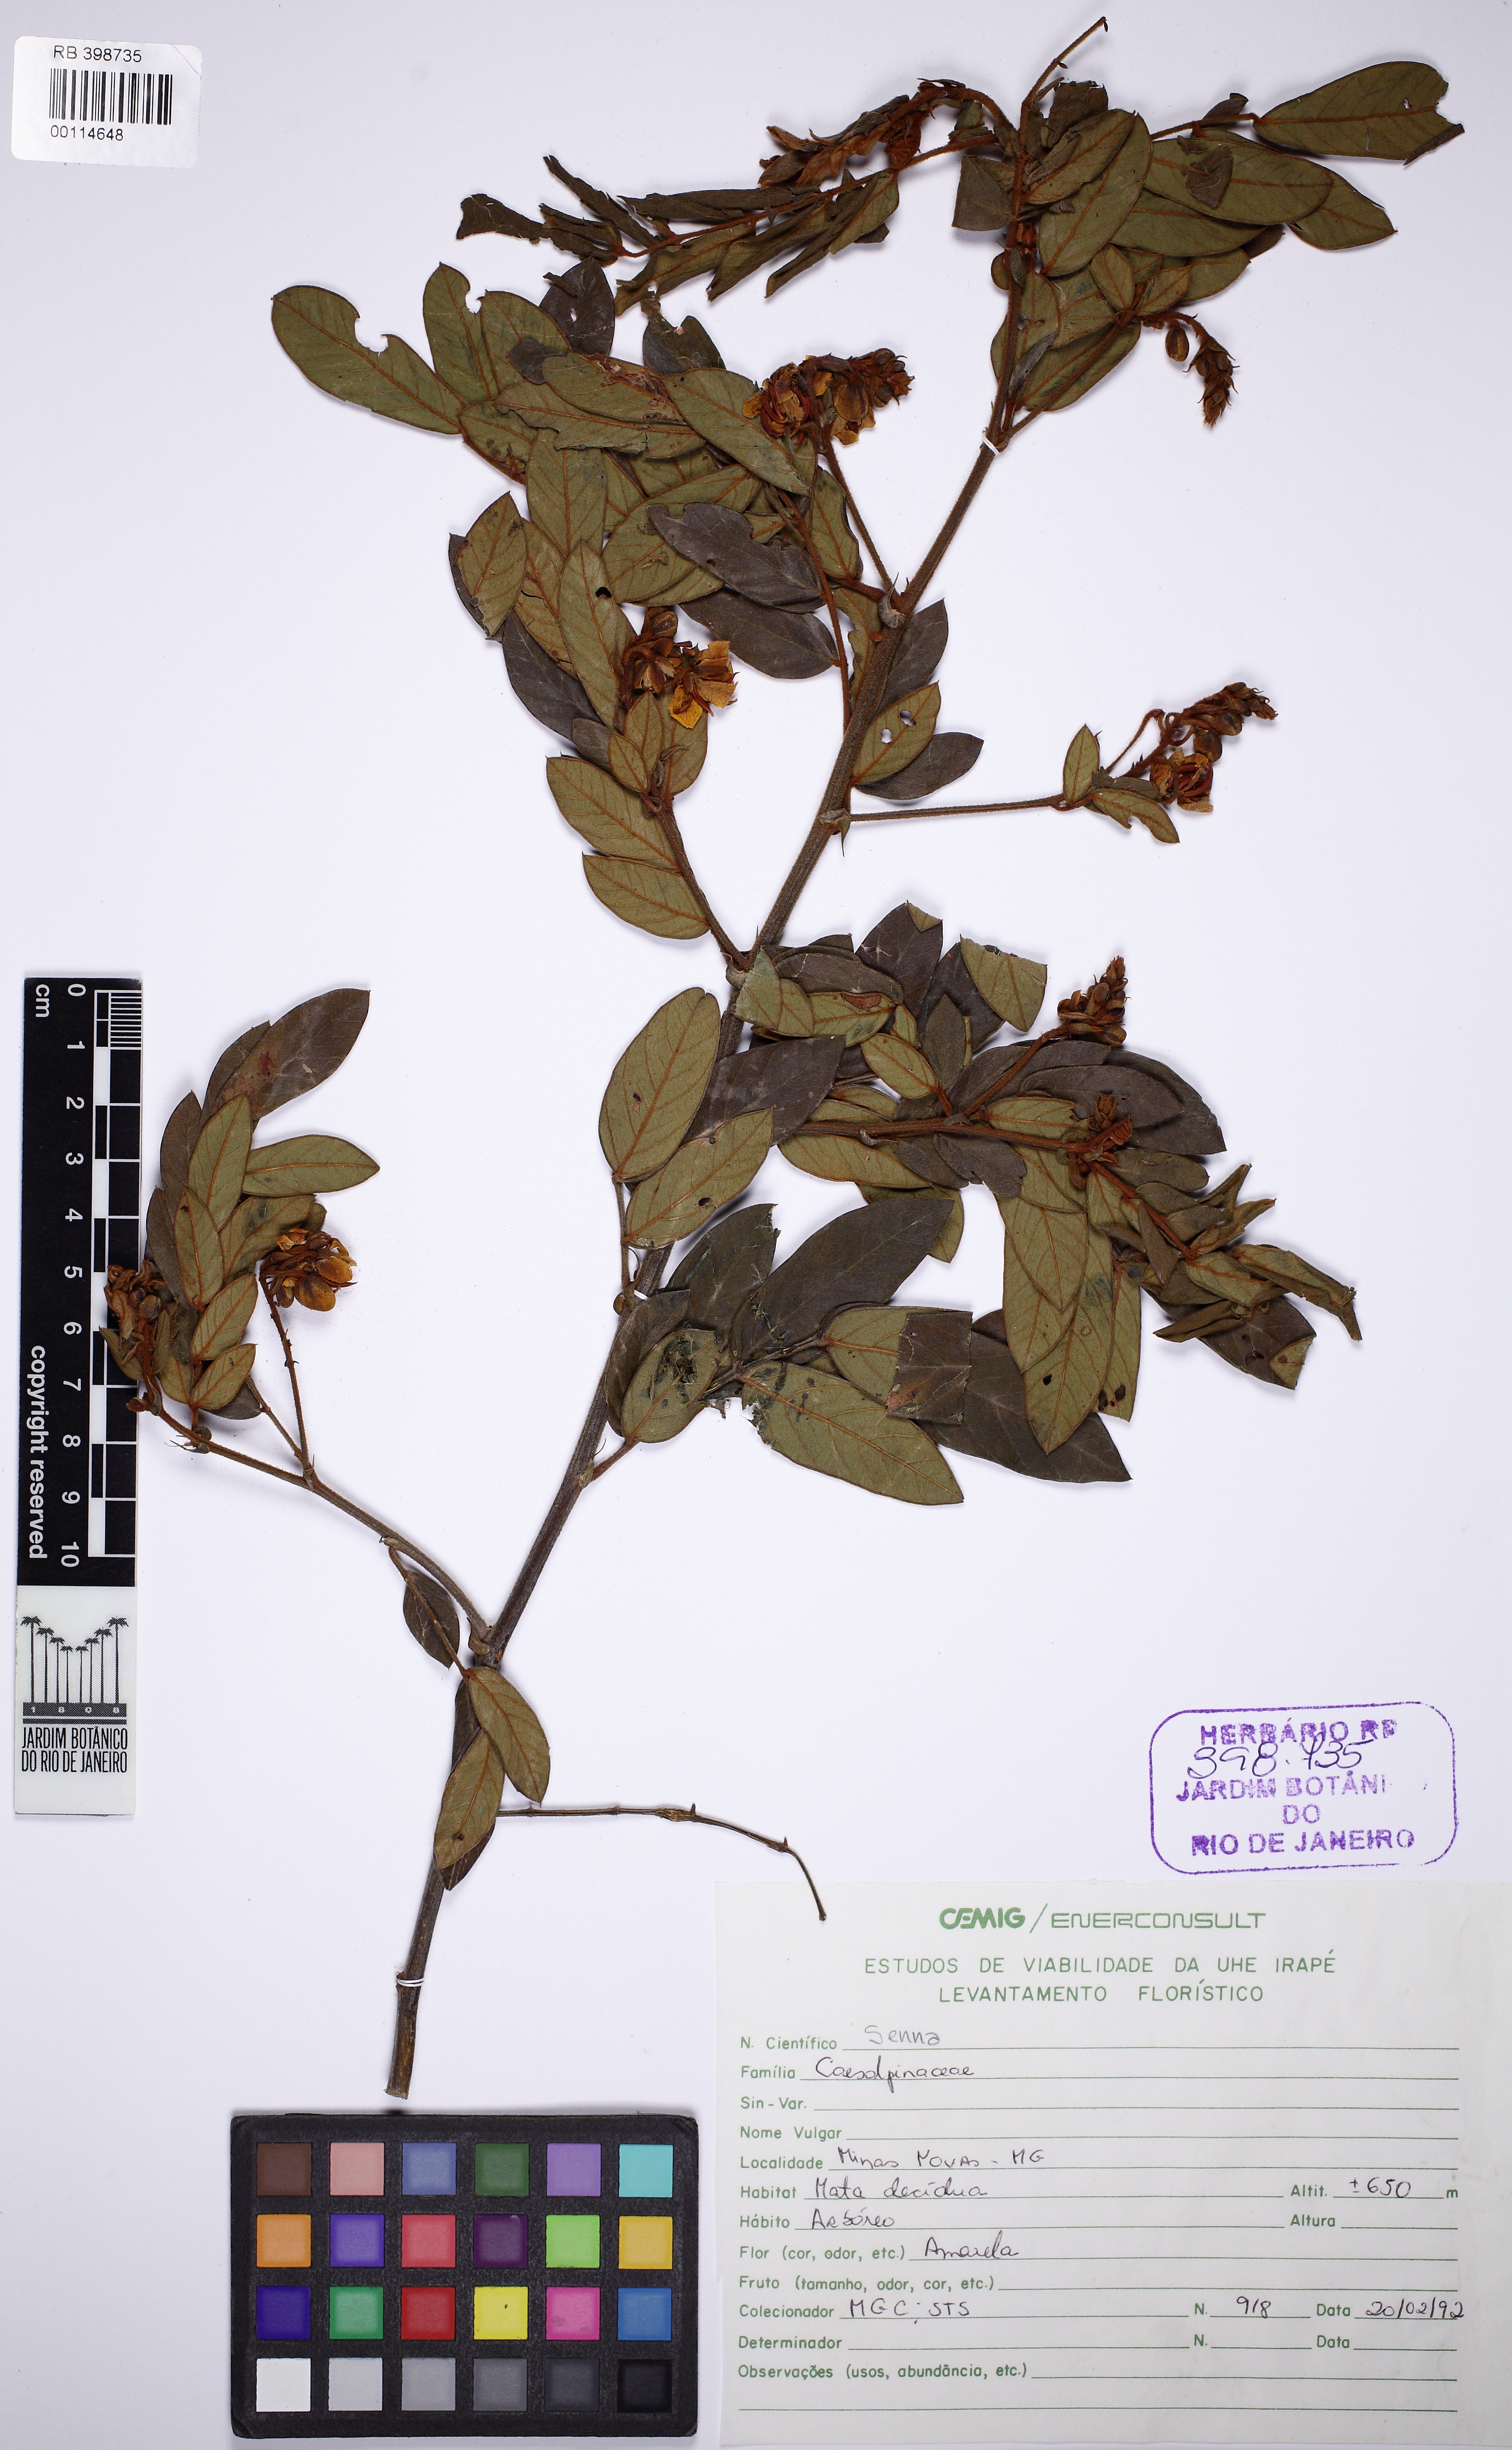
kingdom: Plantae
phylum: Tracheophyta
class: Magnoliopsida
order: Fabales
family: Fabaceae
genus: Senna
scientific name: Senna
